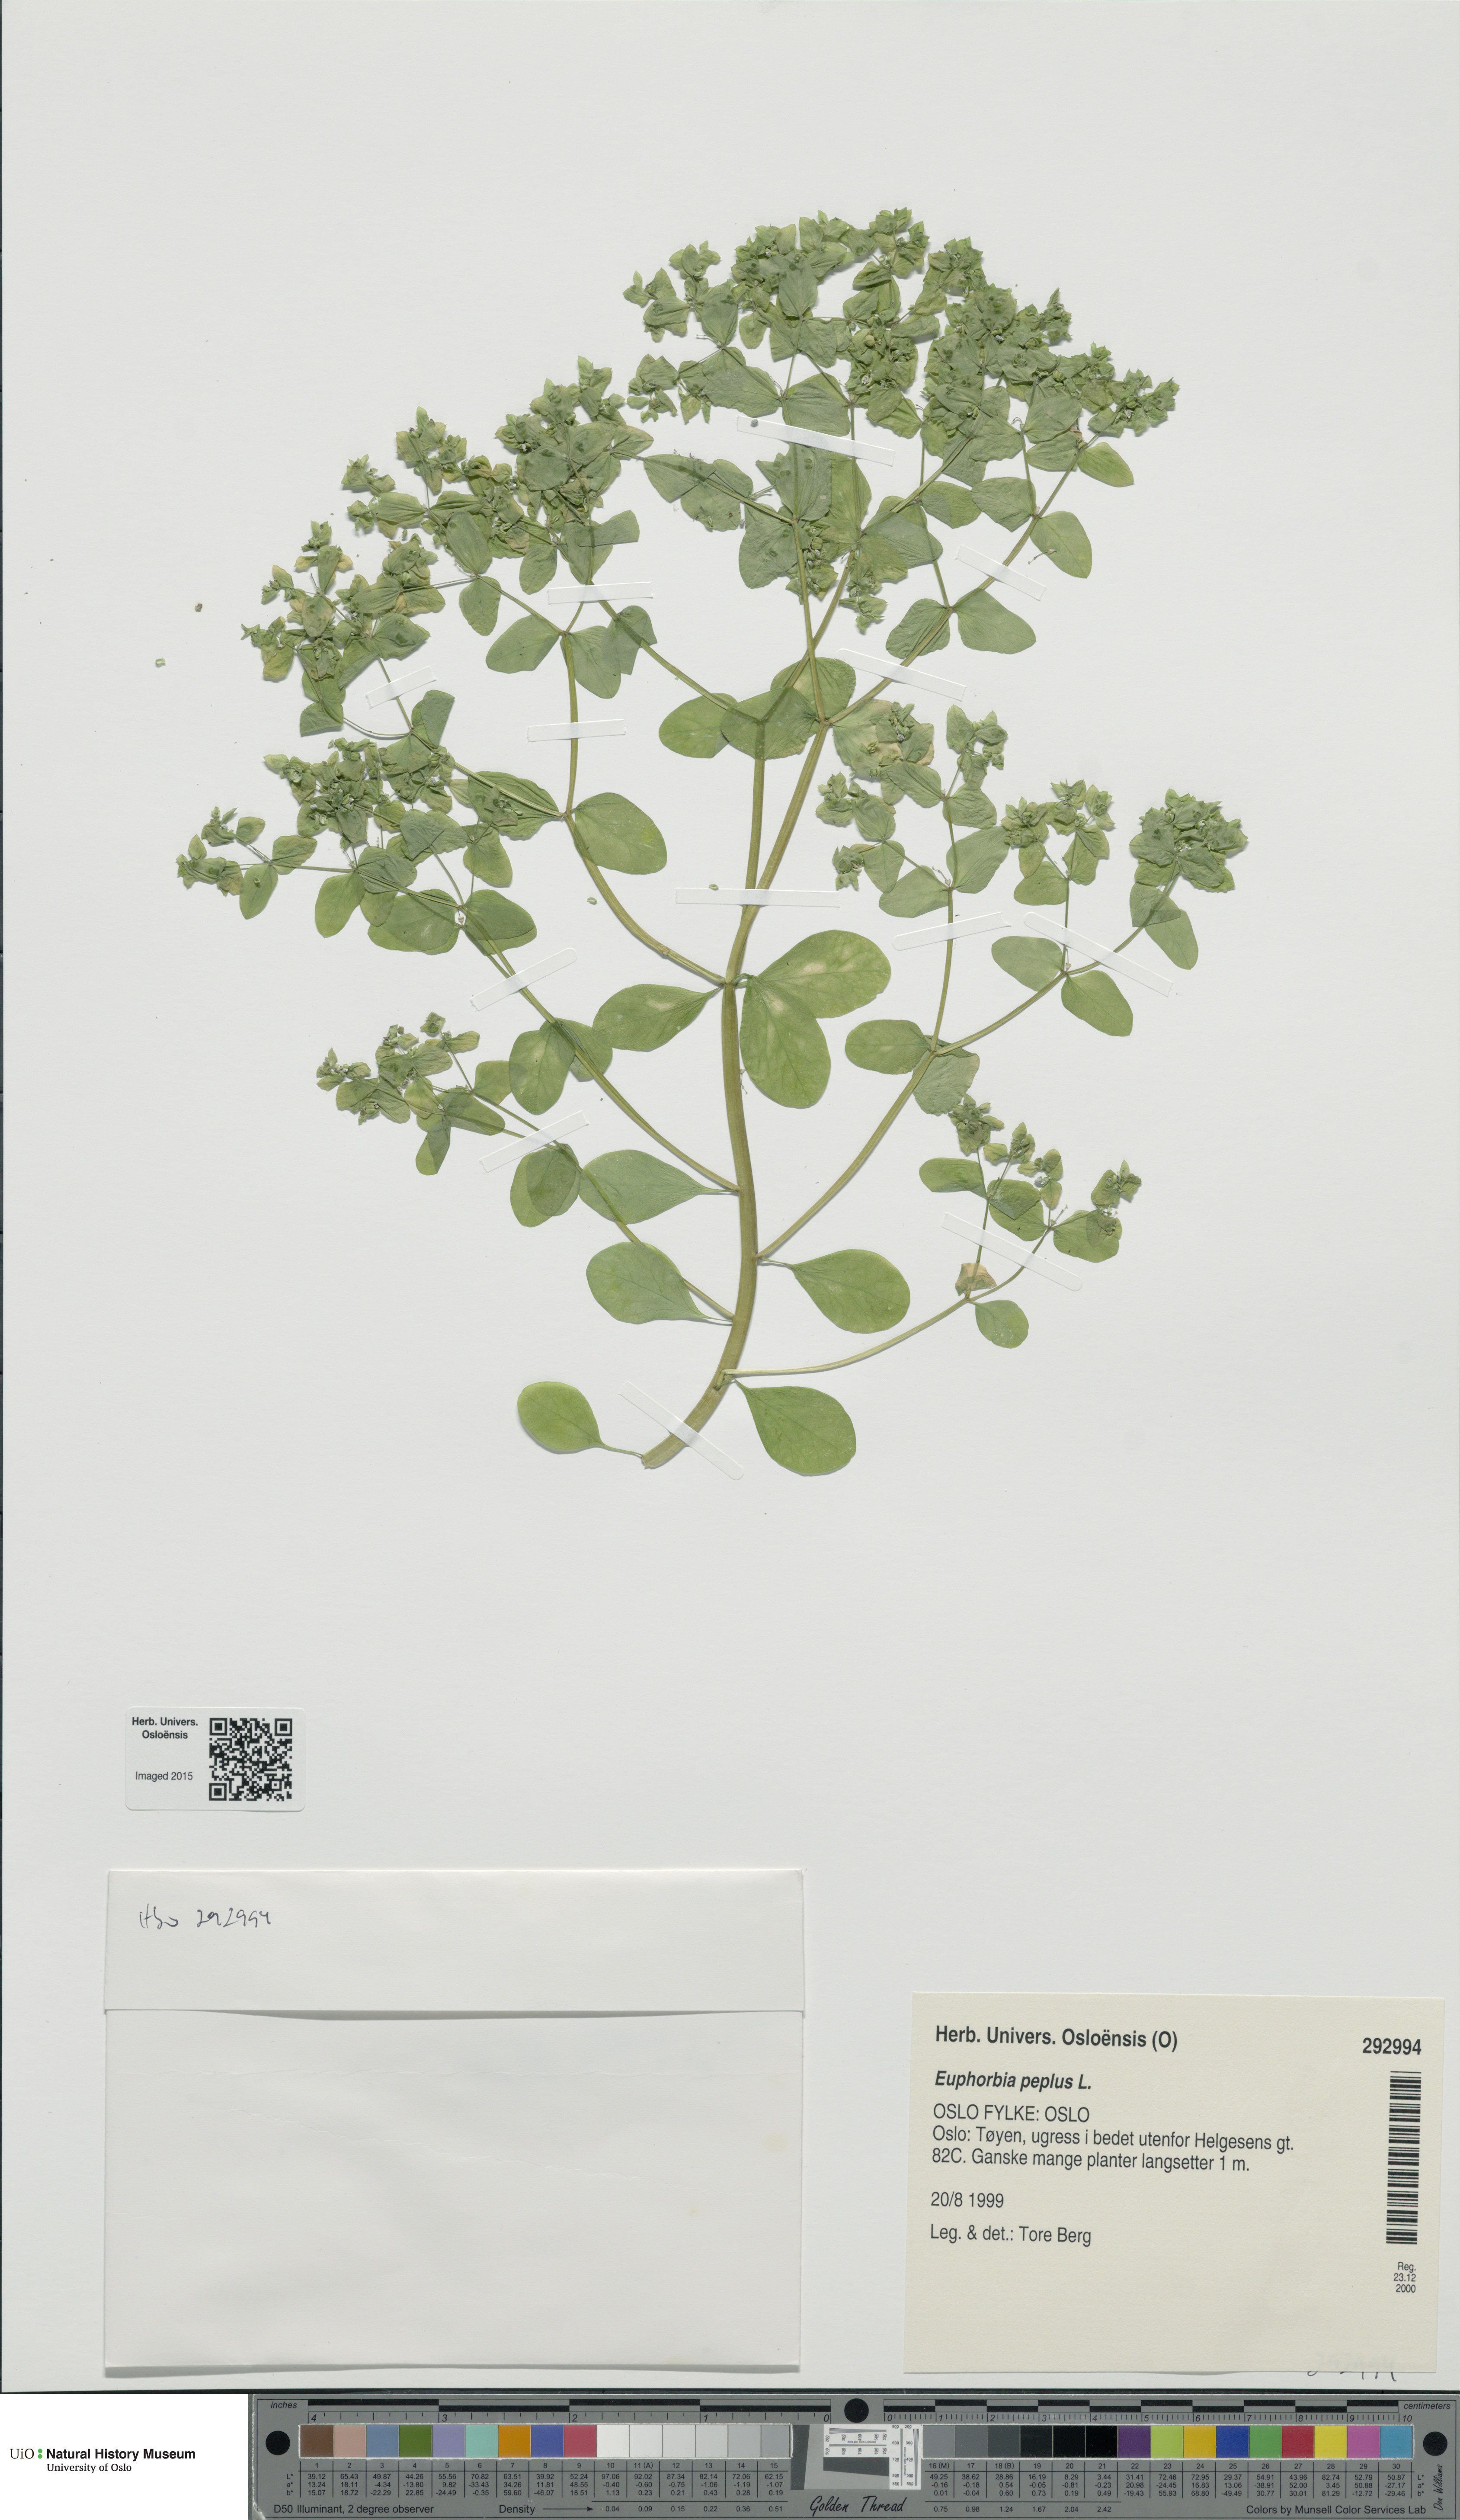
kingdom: Plantae
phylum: Tracheophyta
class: Magnoliopsida
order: Malpighiales
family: Euphorbiaceae
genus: Euphorbia
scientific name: Euphorbia peplus
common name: Petty spurge
